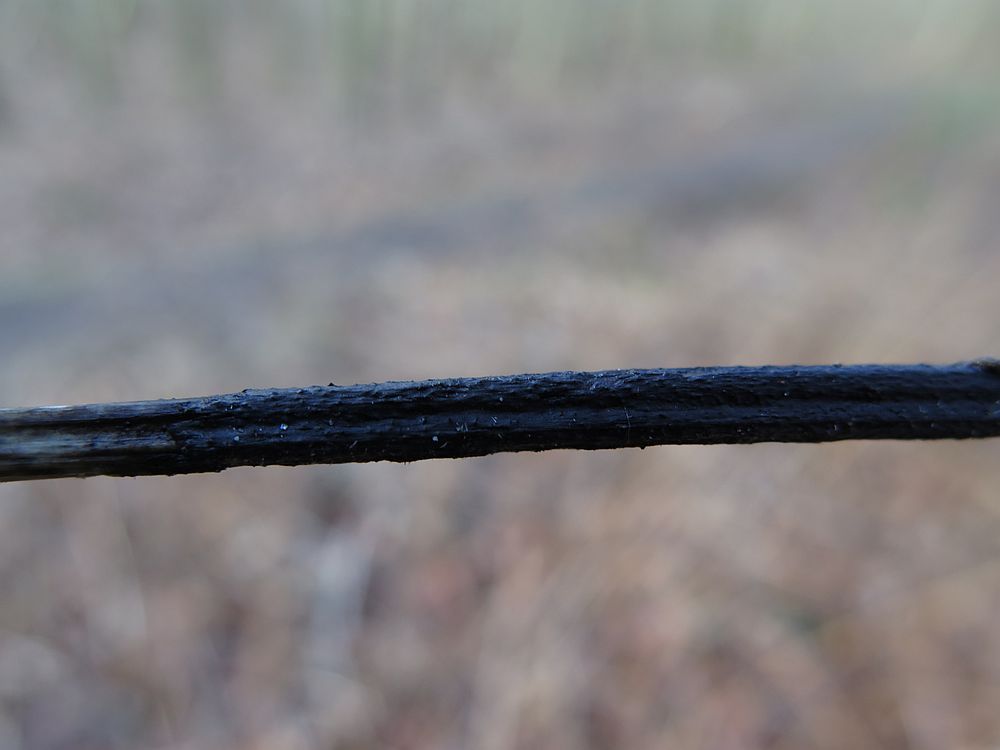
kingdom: Fungi
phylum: Ascomycota
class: Sordariomycetes
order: Diaporthales
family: Diaporthaceae
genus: Diaporthopsis
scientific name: Diaporthopsis urticae
